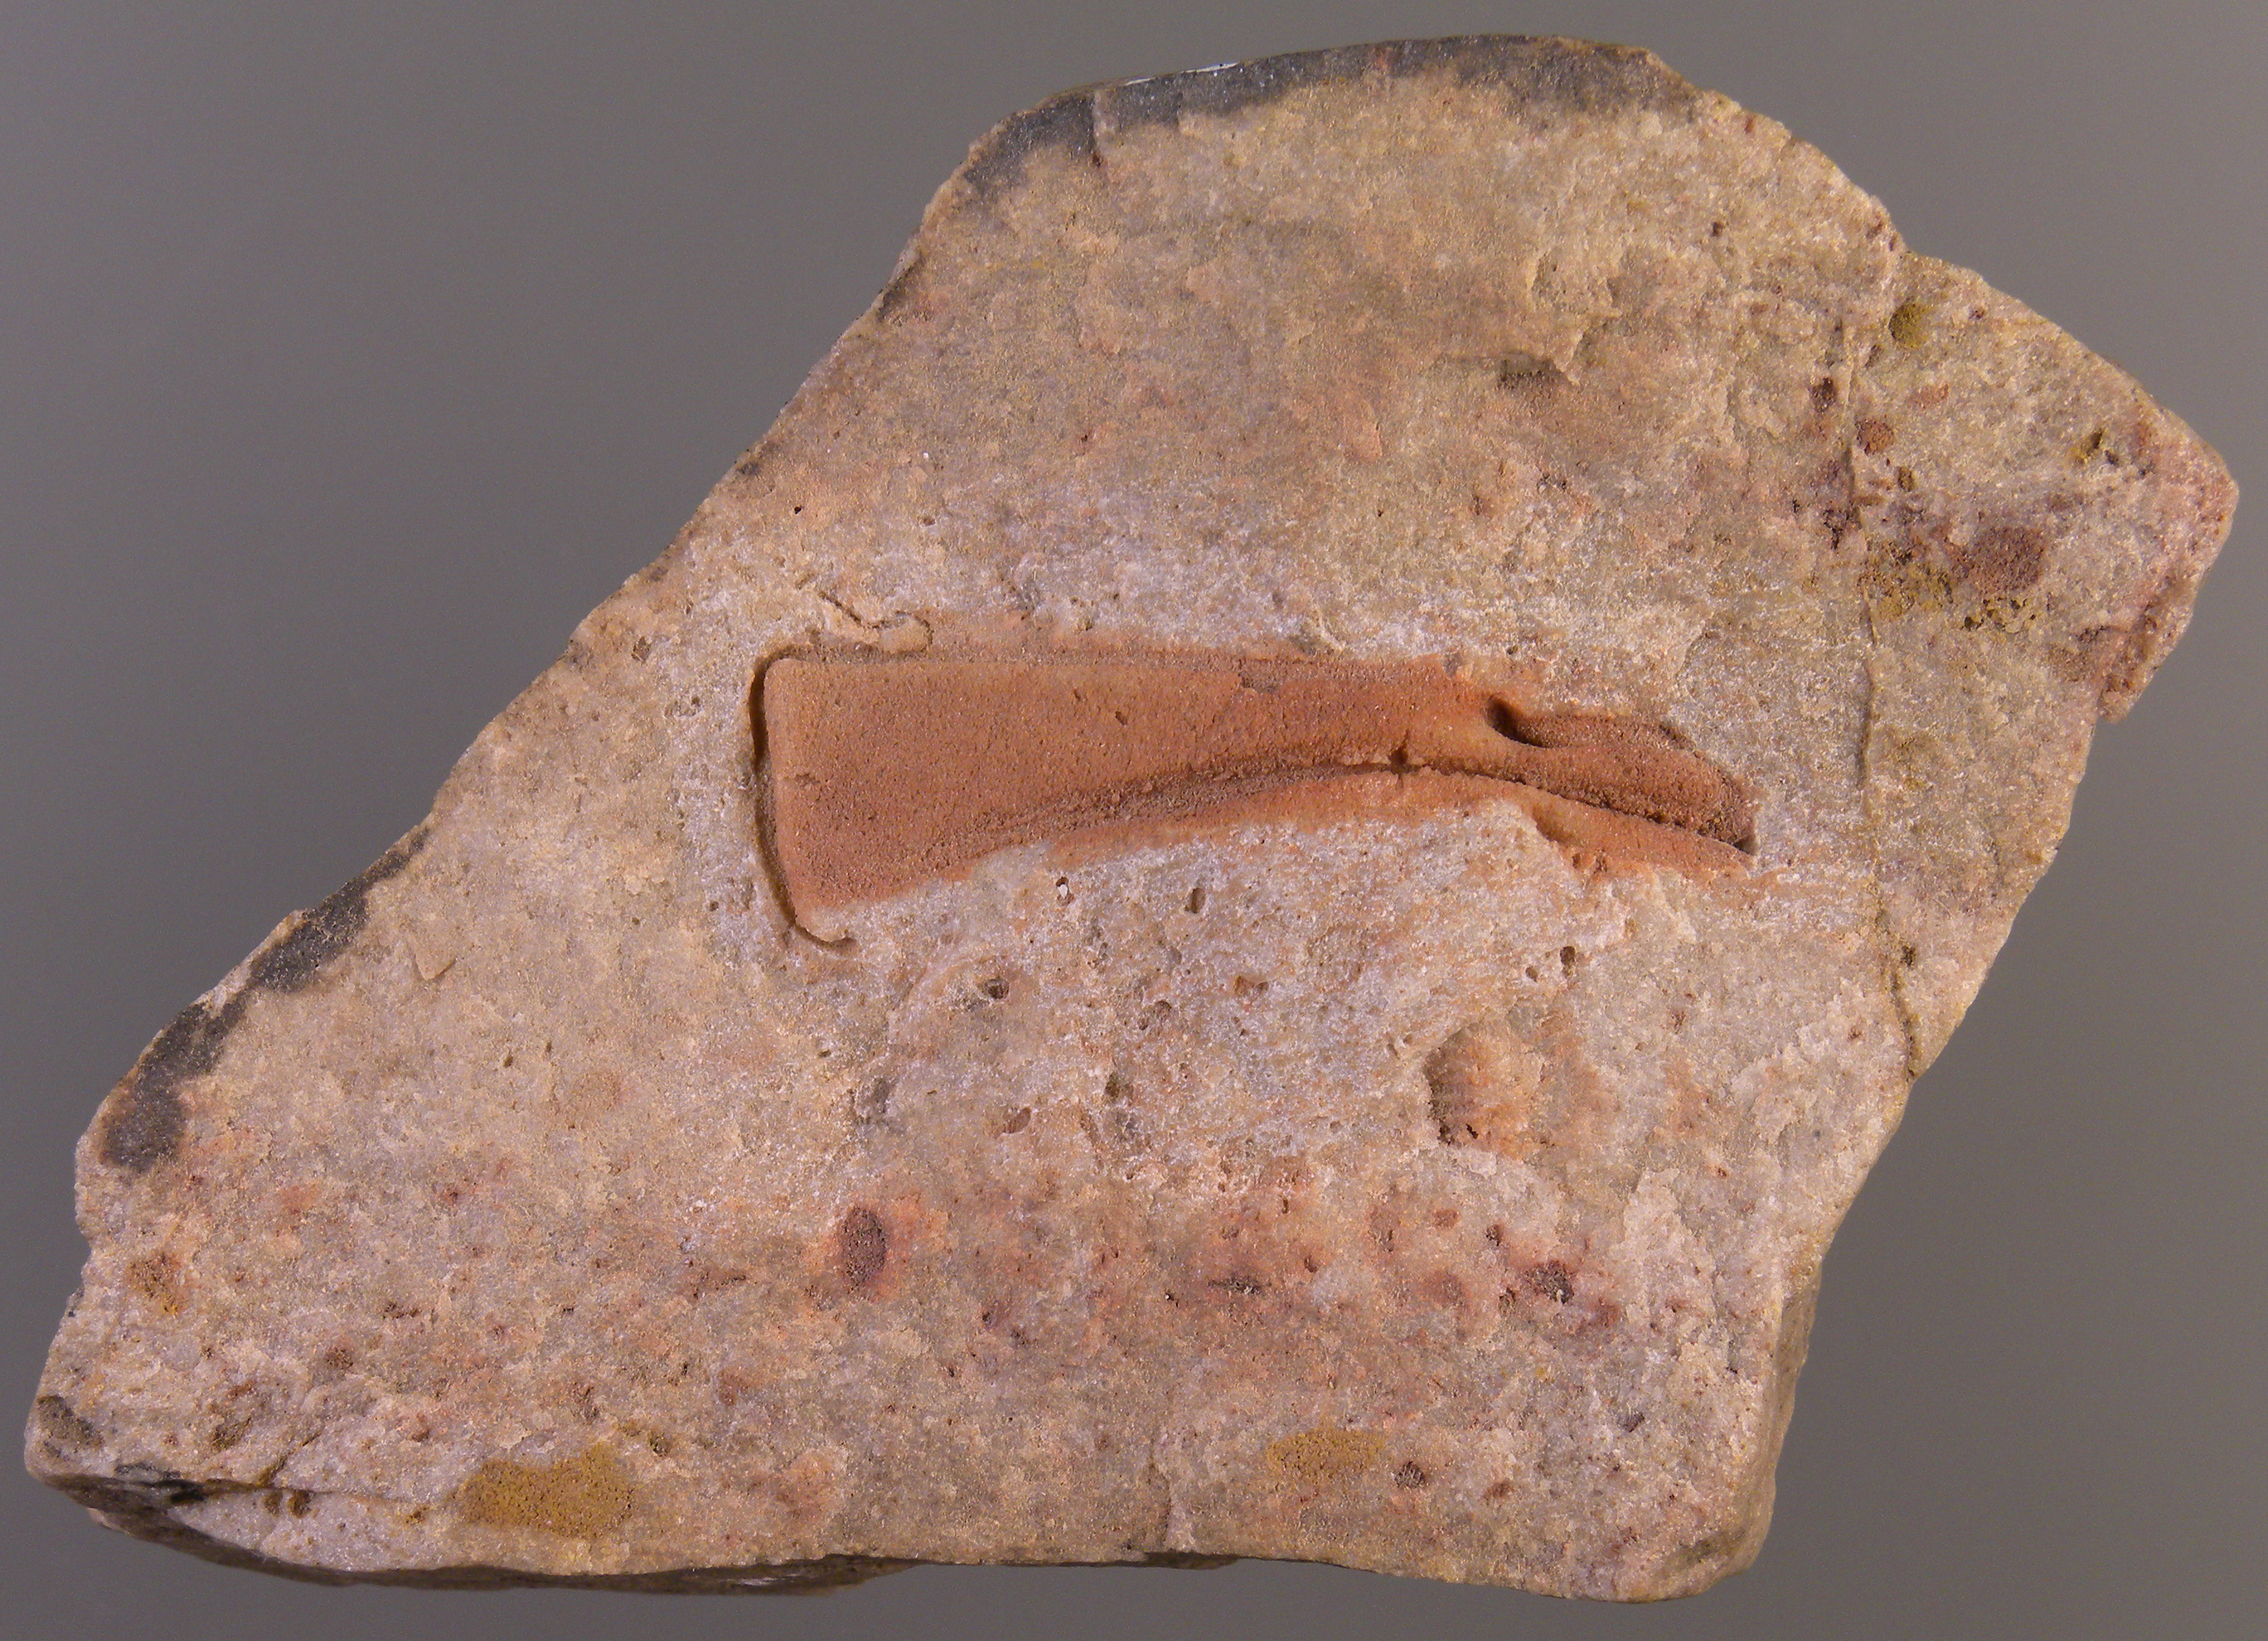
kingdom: Animalia
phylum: Arthropoda
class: Trilobita
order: Phacopida
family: Homalonotidae
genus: Digonus
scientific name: Digonus
